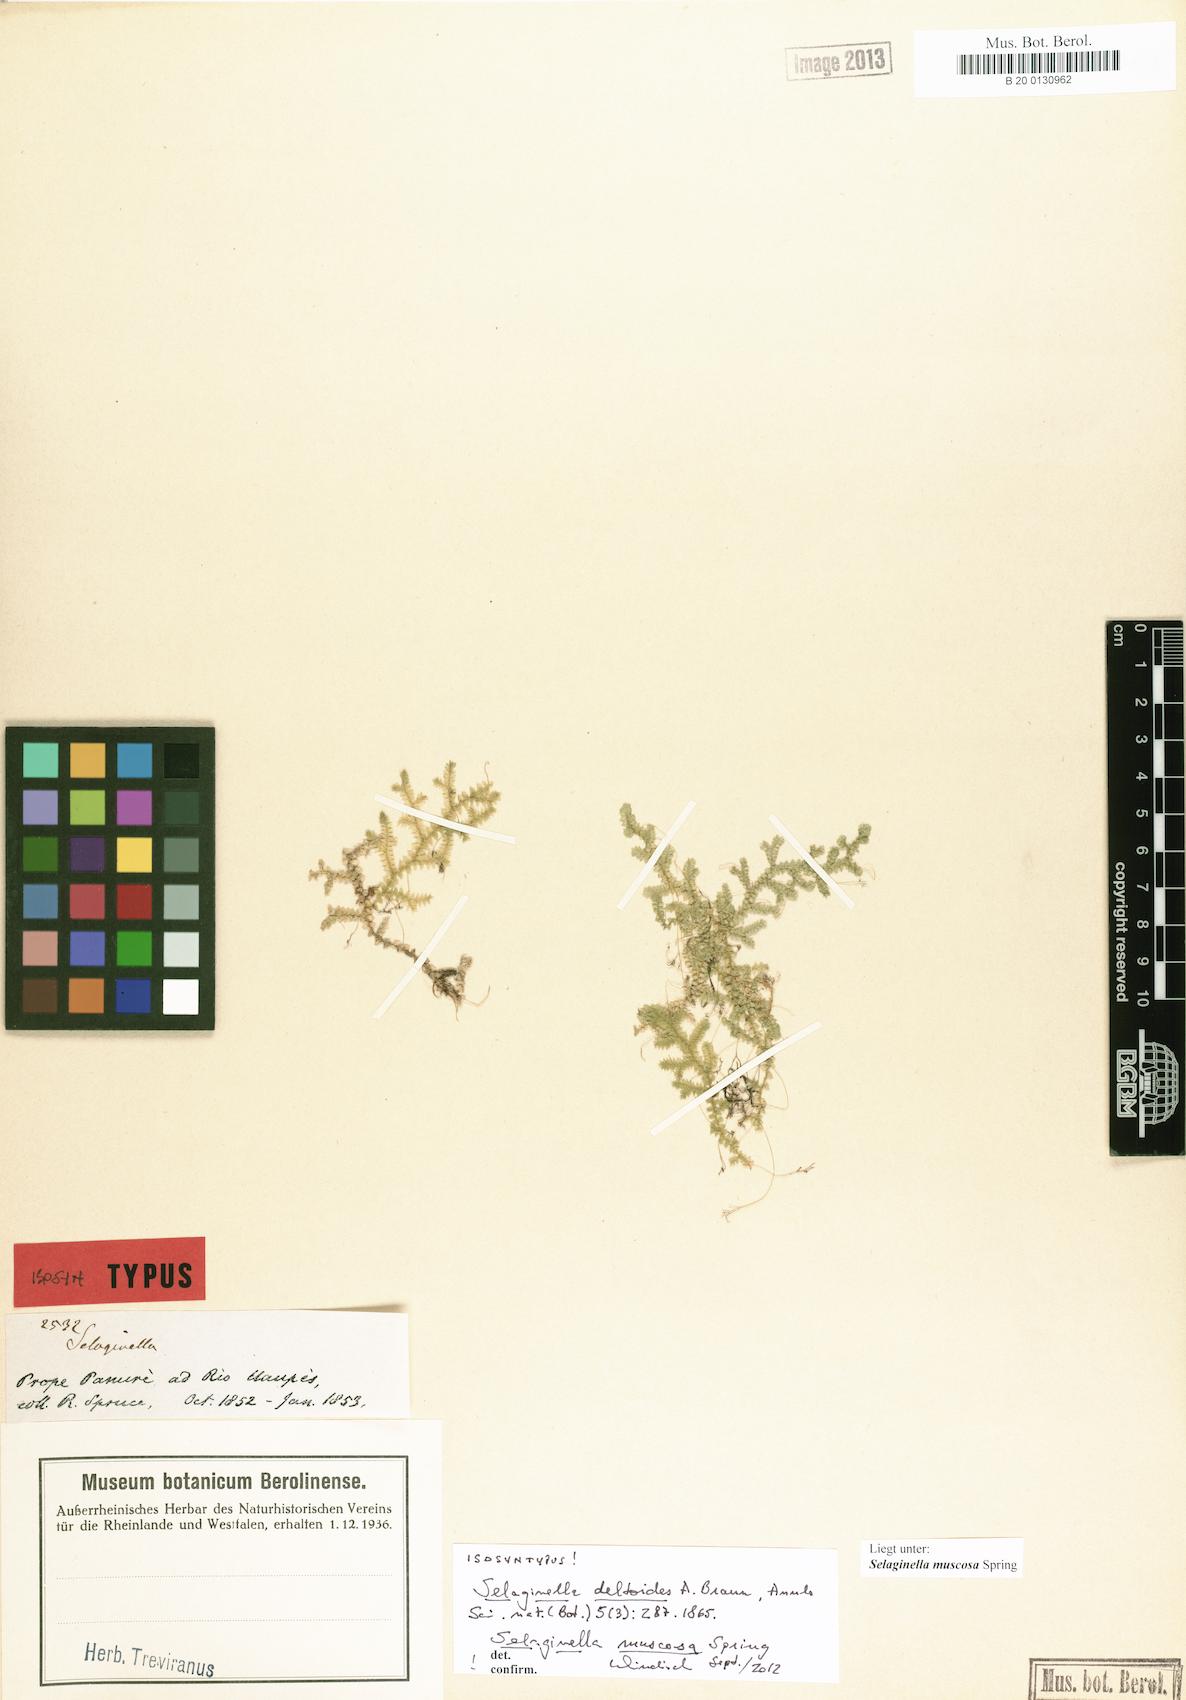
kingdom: Plantae
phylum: Tracheophyta
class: Lycopodiopsida
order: Selaginellales
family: Selaginellaceae
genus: Selaginella
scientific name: Selaginella muscosa
